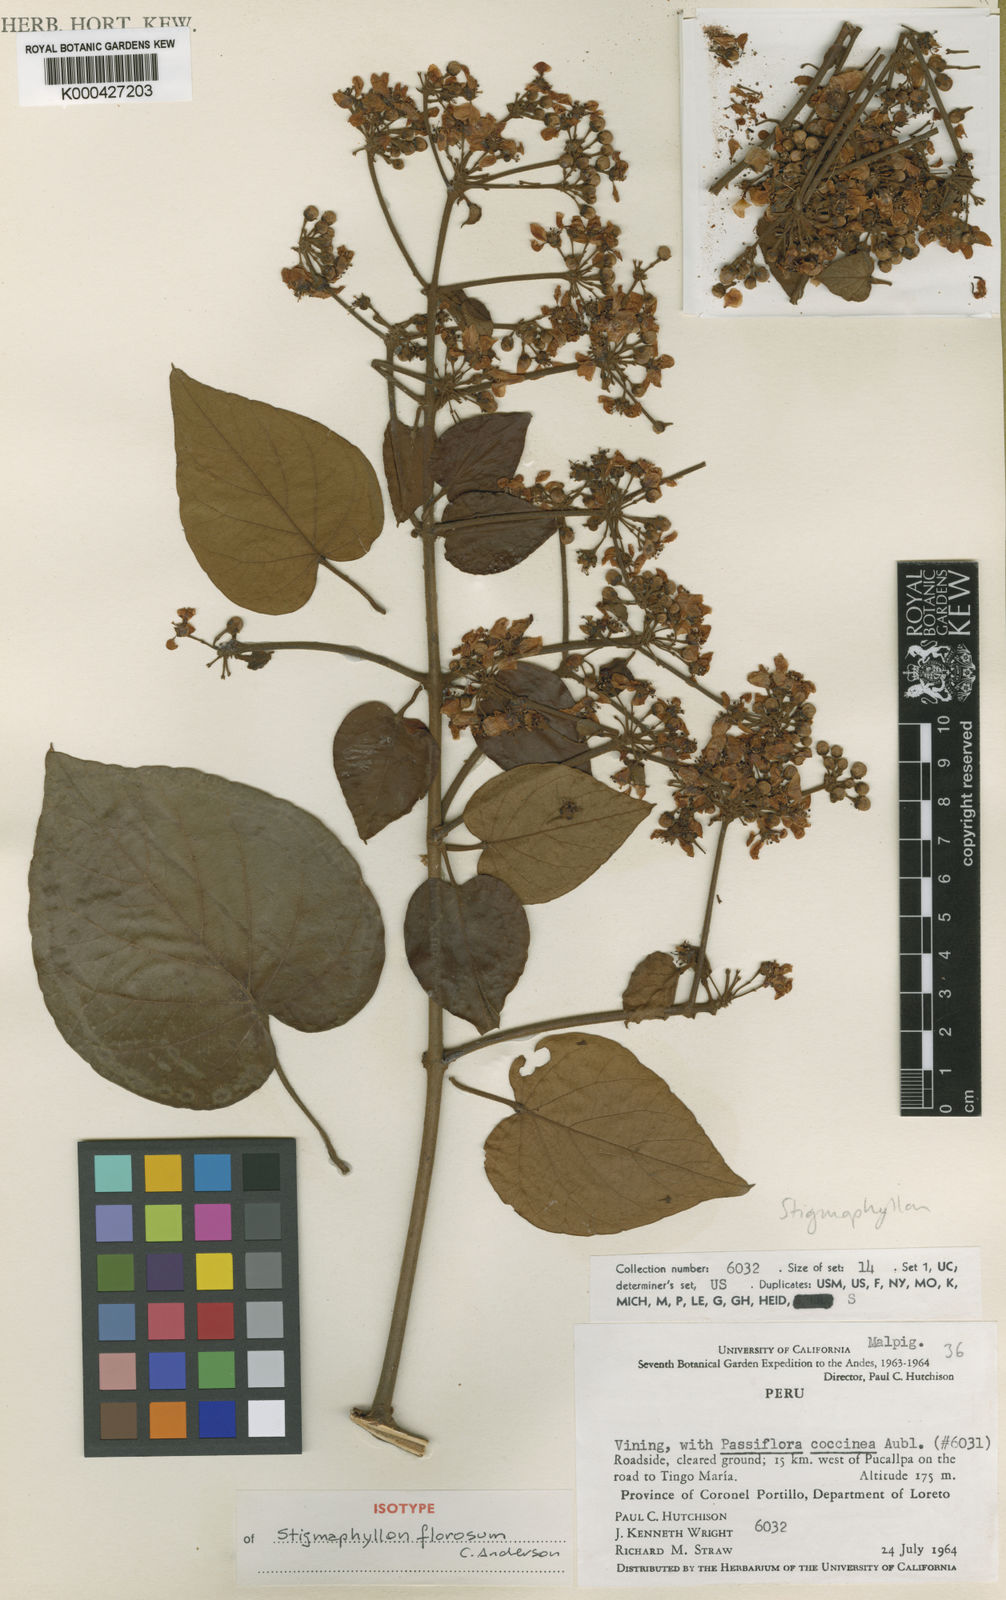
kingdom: Plantae
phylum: Tracheophyta
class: Magnoliopsida
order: Malpighiales
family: Malpighiaceae
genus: Stigmaphyllon
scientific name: Stigmaphyllon florosum
